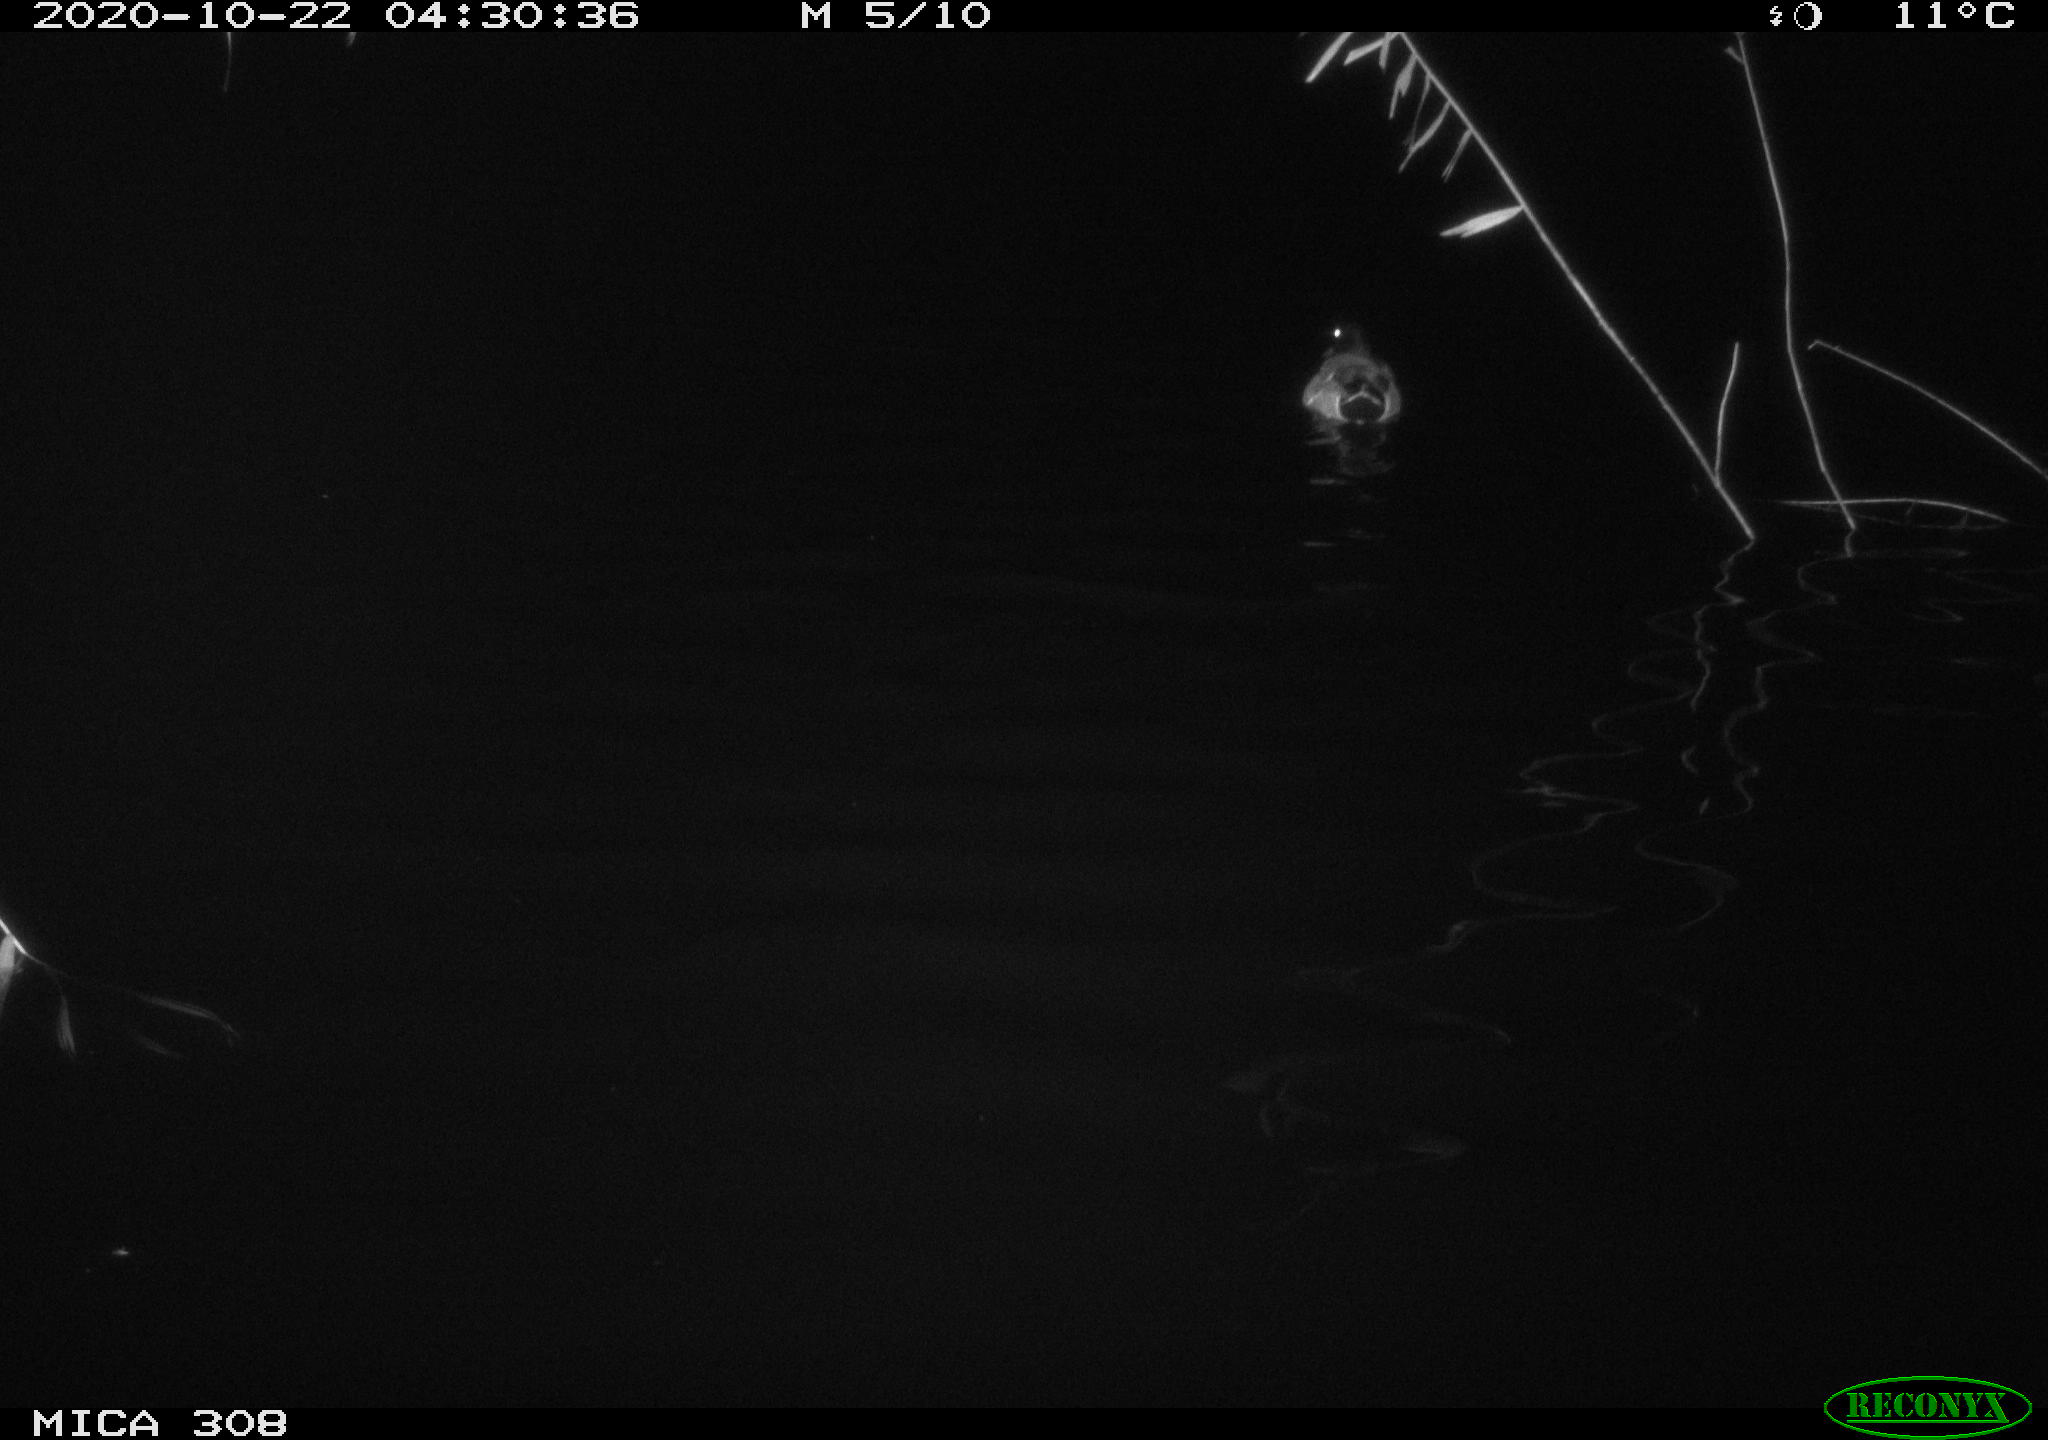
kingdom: Animalia
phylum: Chordata
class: Aves
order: Anseriformes
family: Anatidae
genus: Anas
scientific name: Anas platyrhynchos
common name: Mallard
